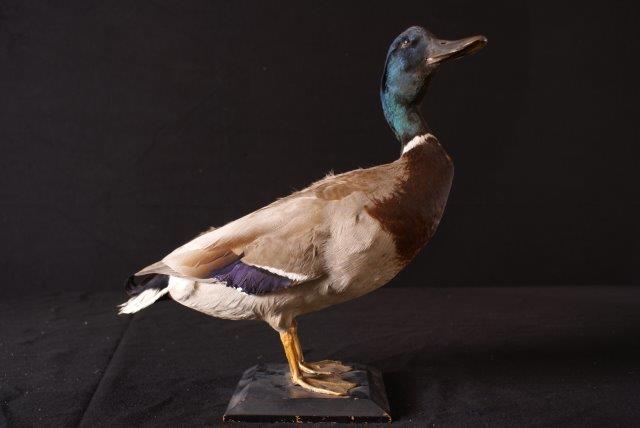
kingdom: Animalia
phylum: Chordata
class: Aves
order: Anseriformes
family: Anatidae
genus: Anas
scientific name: Anas platyrhynchos
